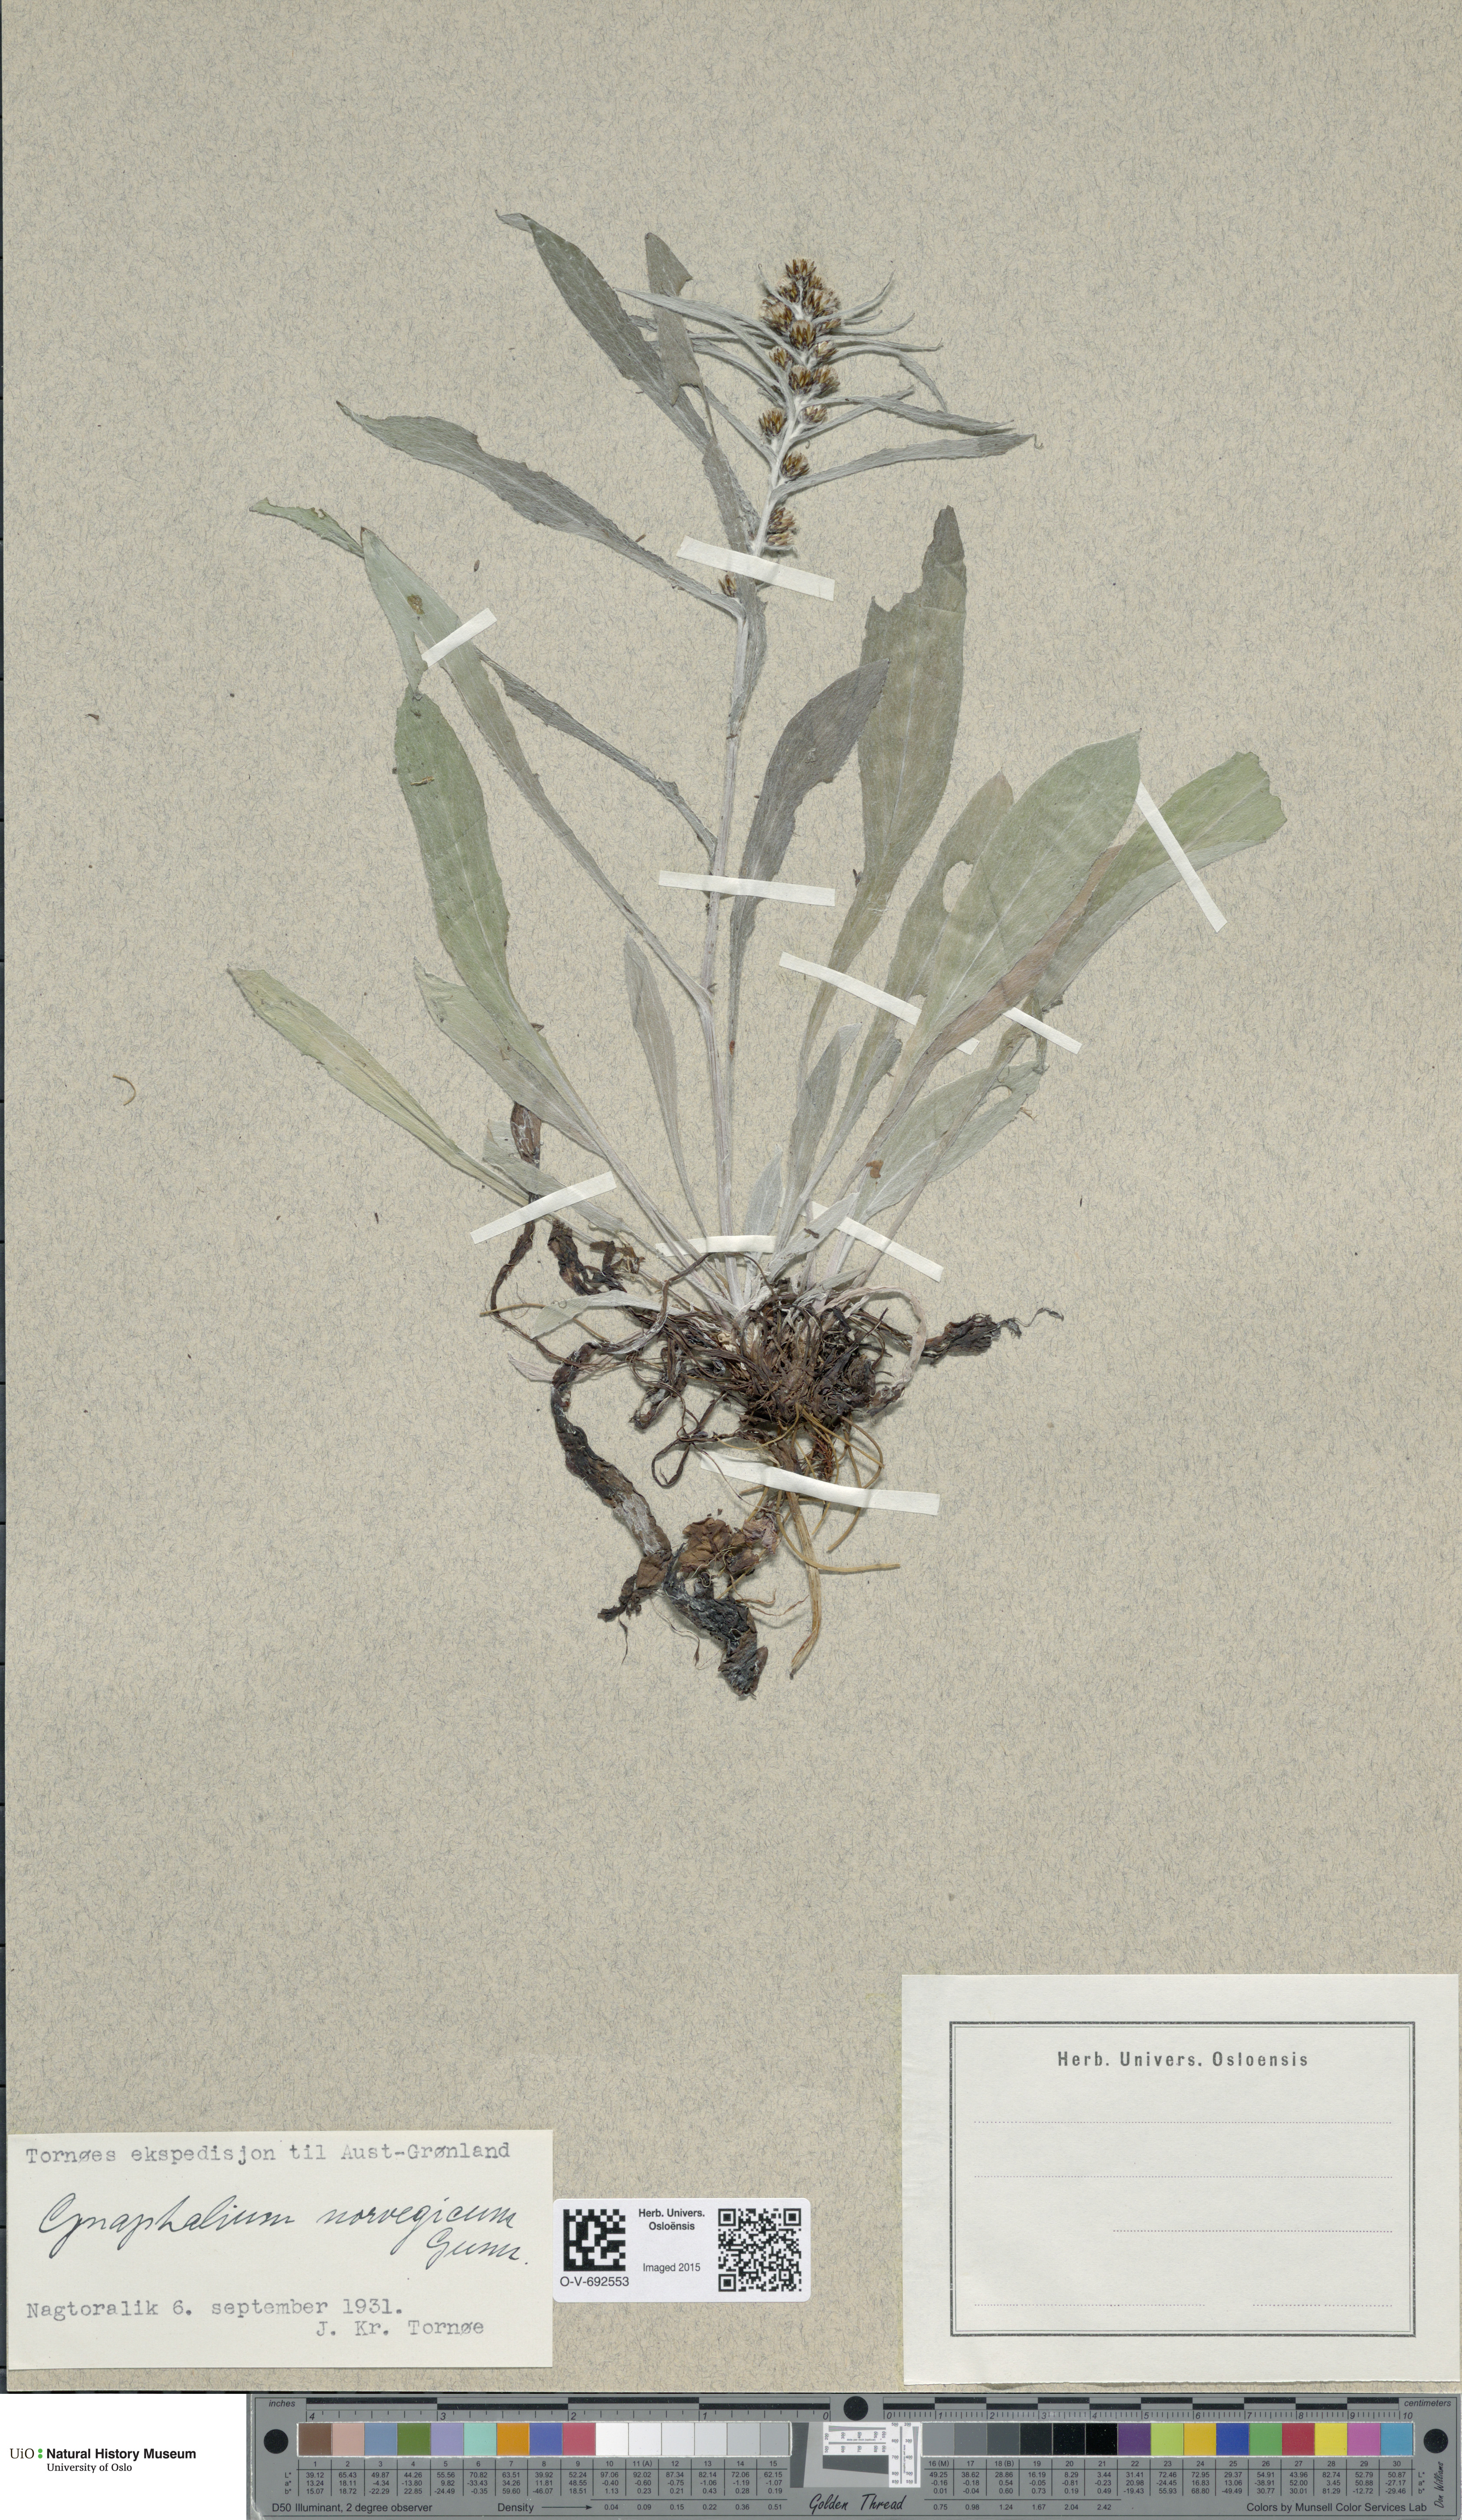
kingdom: Plantae
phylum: Tracheophyta
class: Magnoliopsida
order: Asterales
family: Asteraceae
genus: Omalotheca
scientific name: Omalotheca norvegica
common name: Norwegian arctic-cudweed
